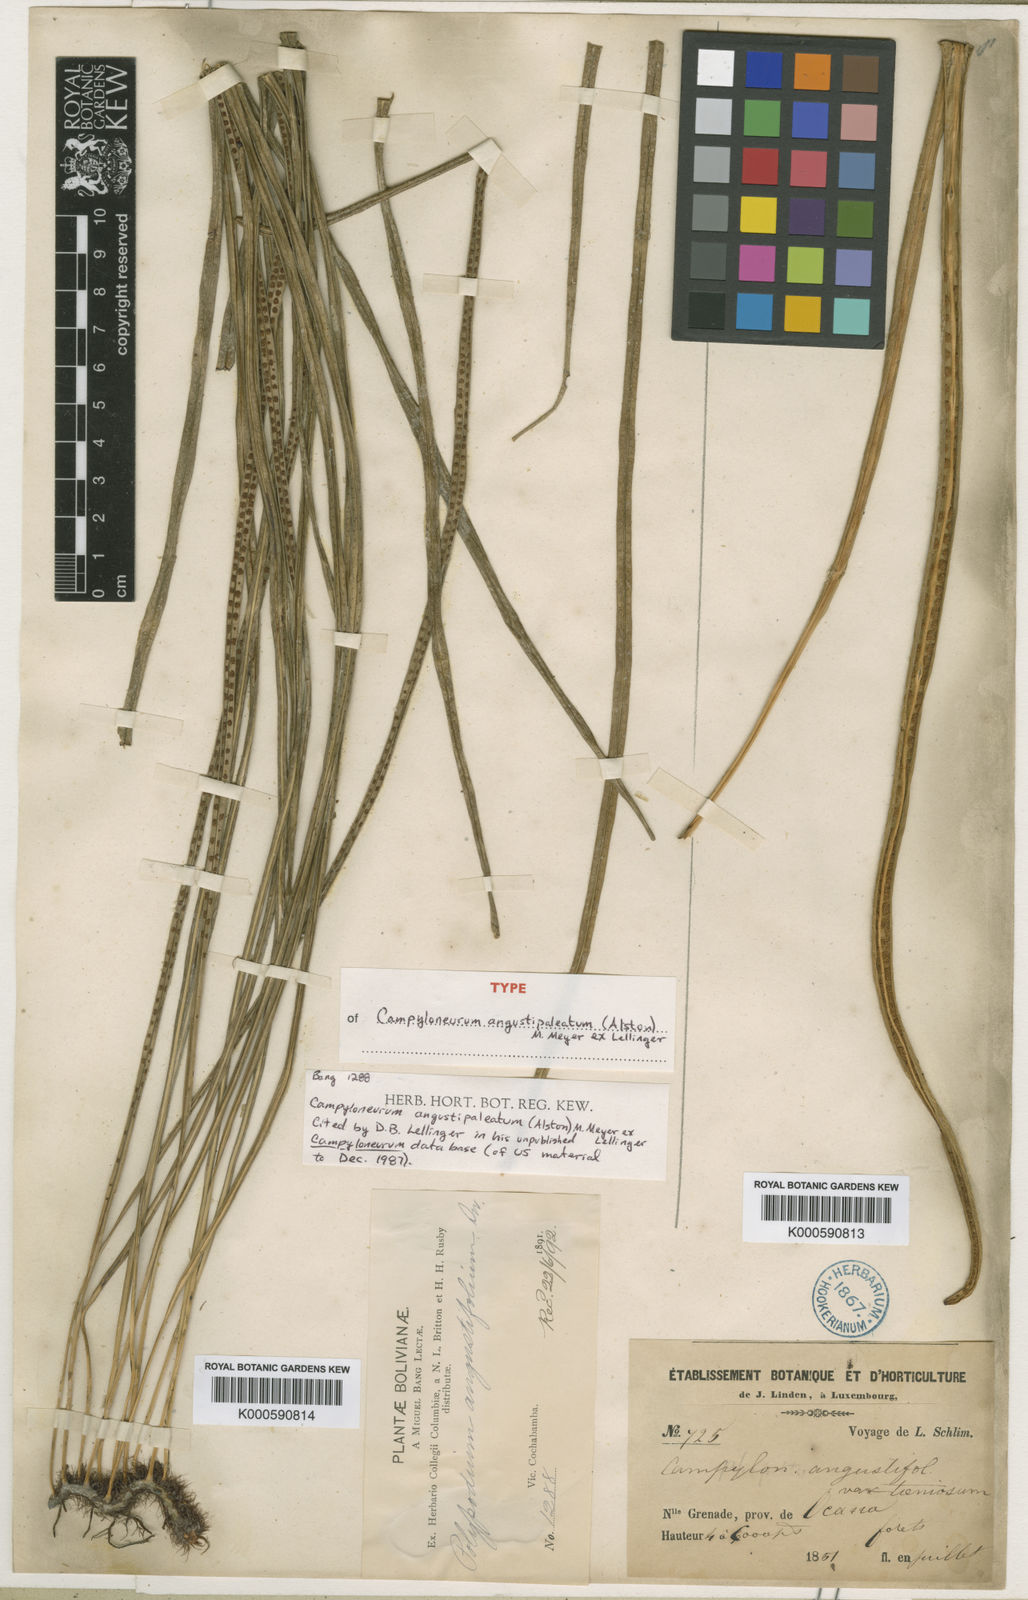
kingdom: Plantae
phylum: Tracheophyta
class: Polypodiopsida
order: Polypodiales
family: Polypodiaceae
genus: Campyloneurum
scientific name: Campyloneurum angustipaleatum
